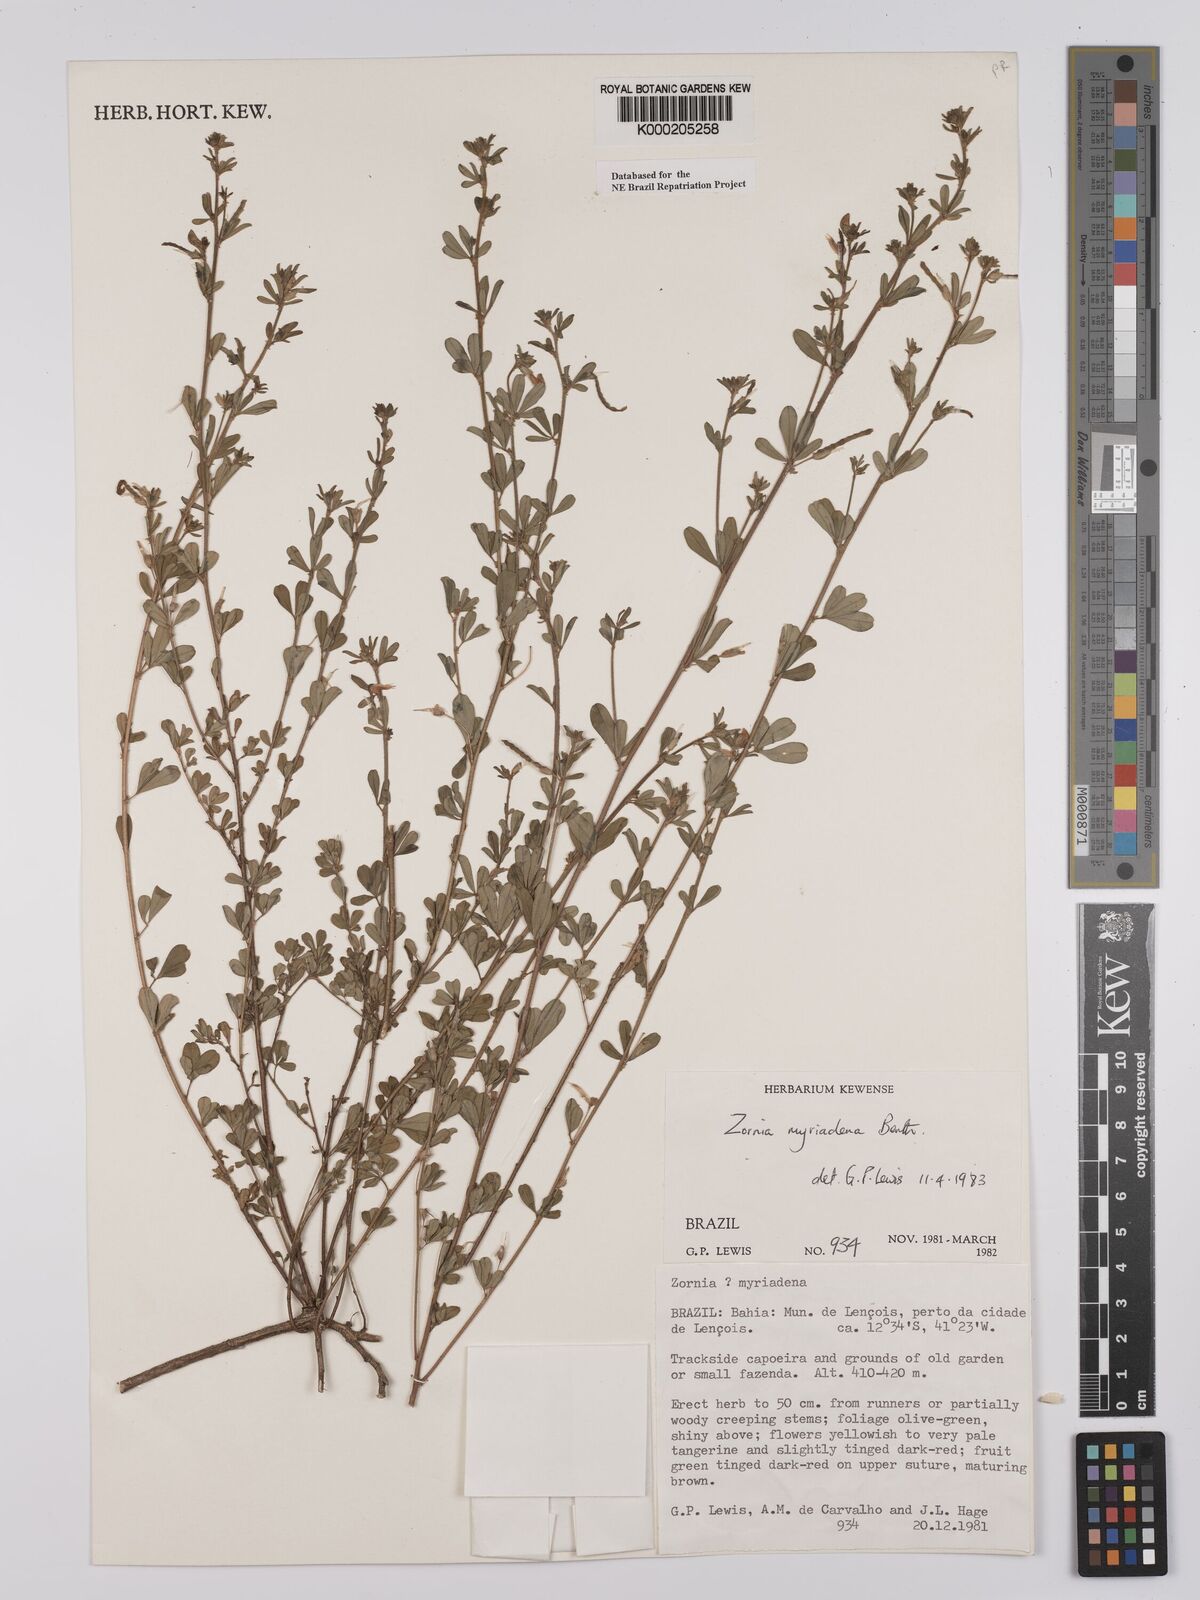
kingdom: Plantae
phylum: Tracheophyta
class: Magnoliopsida
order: Fabales
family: Fabaceae
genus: Zornia
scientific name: Zornia myriadena
